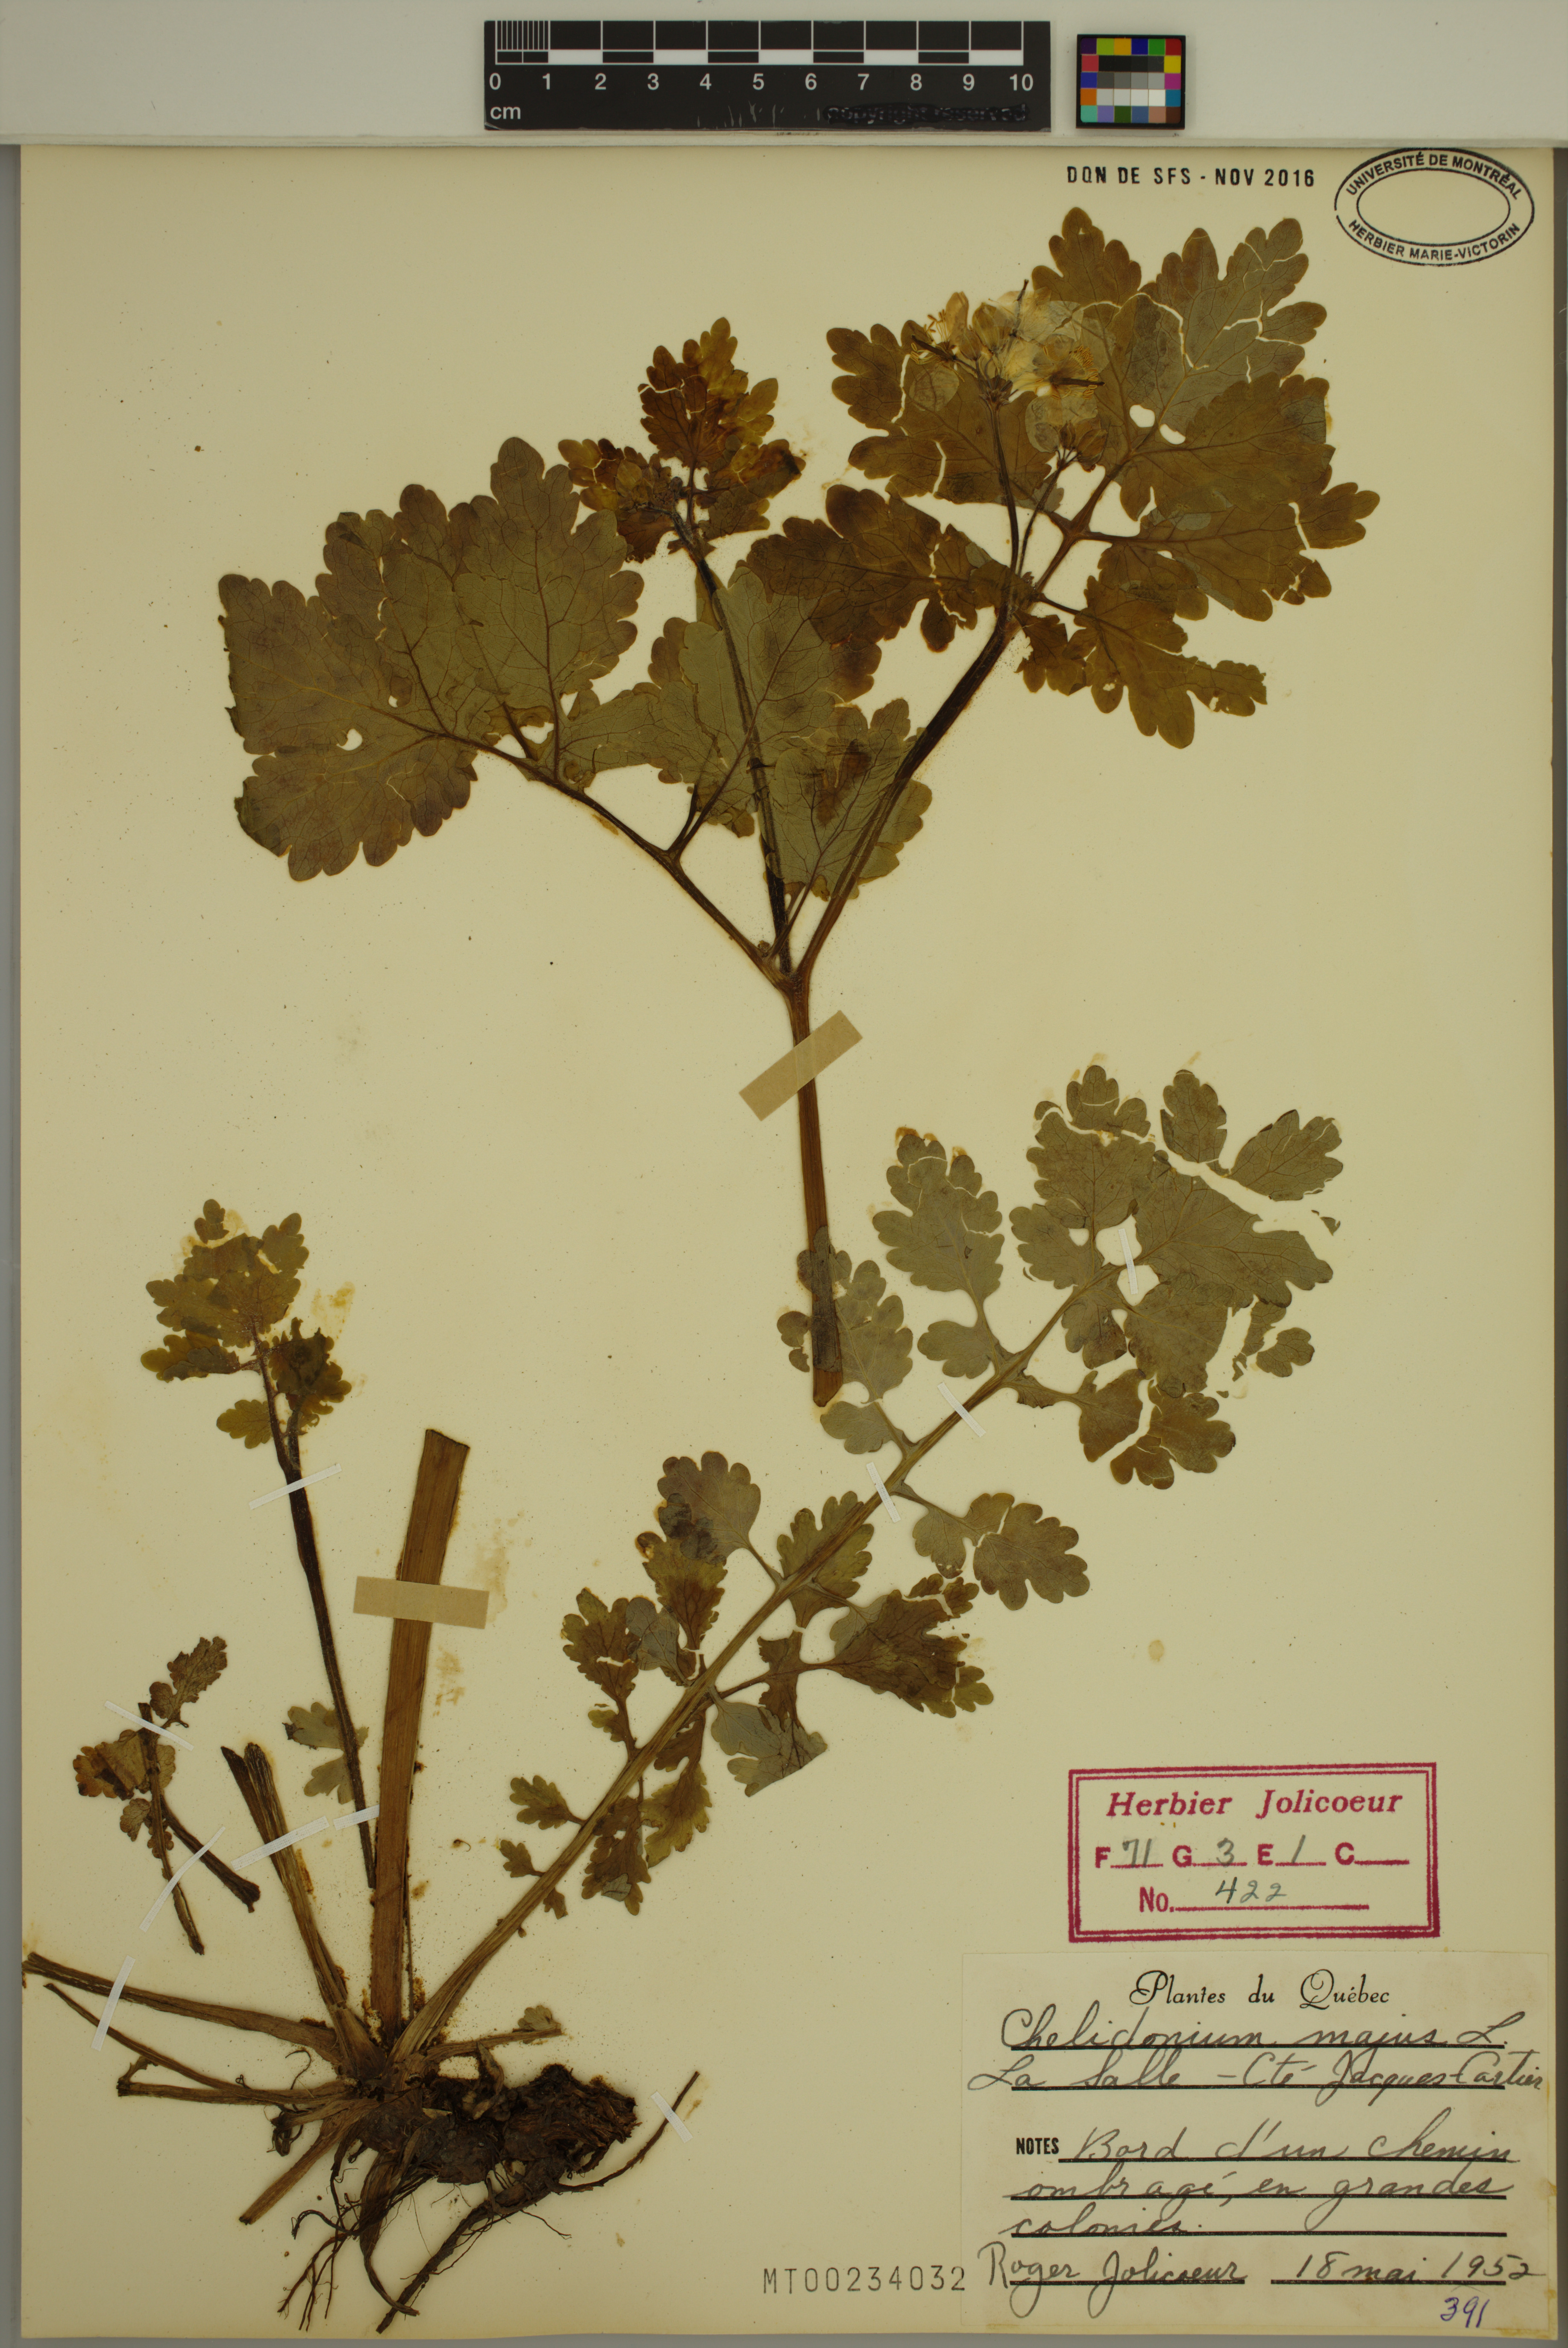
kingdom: Plantae
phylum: Tracheophyta
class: Magnoliopsida
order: Ranunculales
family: Papaveraceae
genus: Chelidonium
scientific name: Chelidonium majus
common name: Greater celandine
